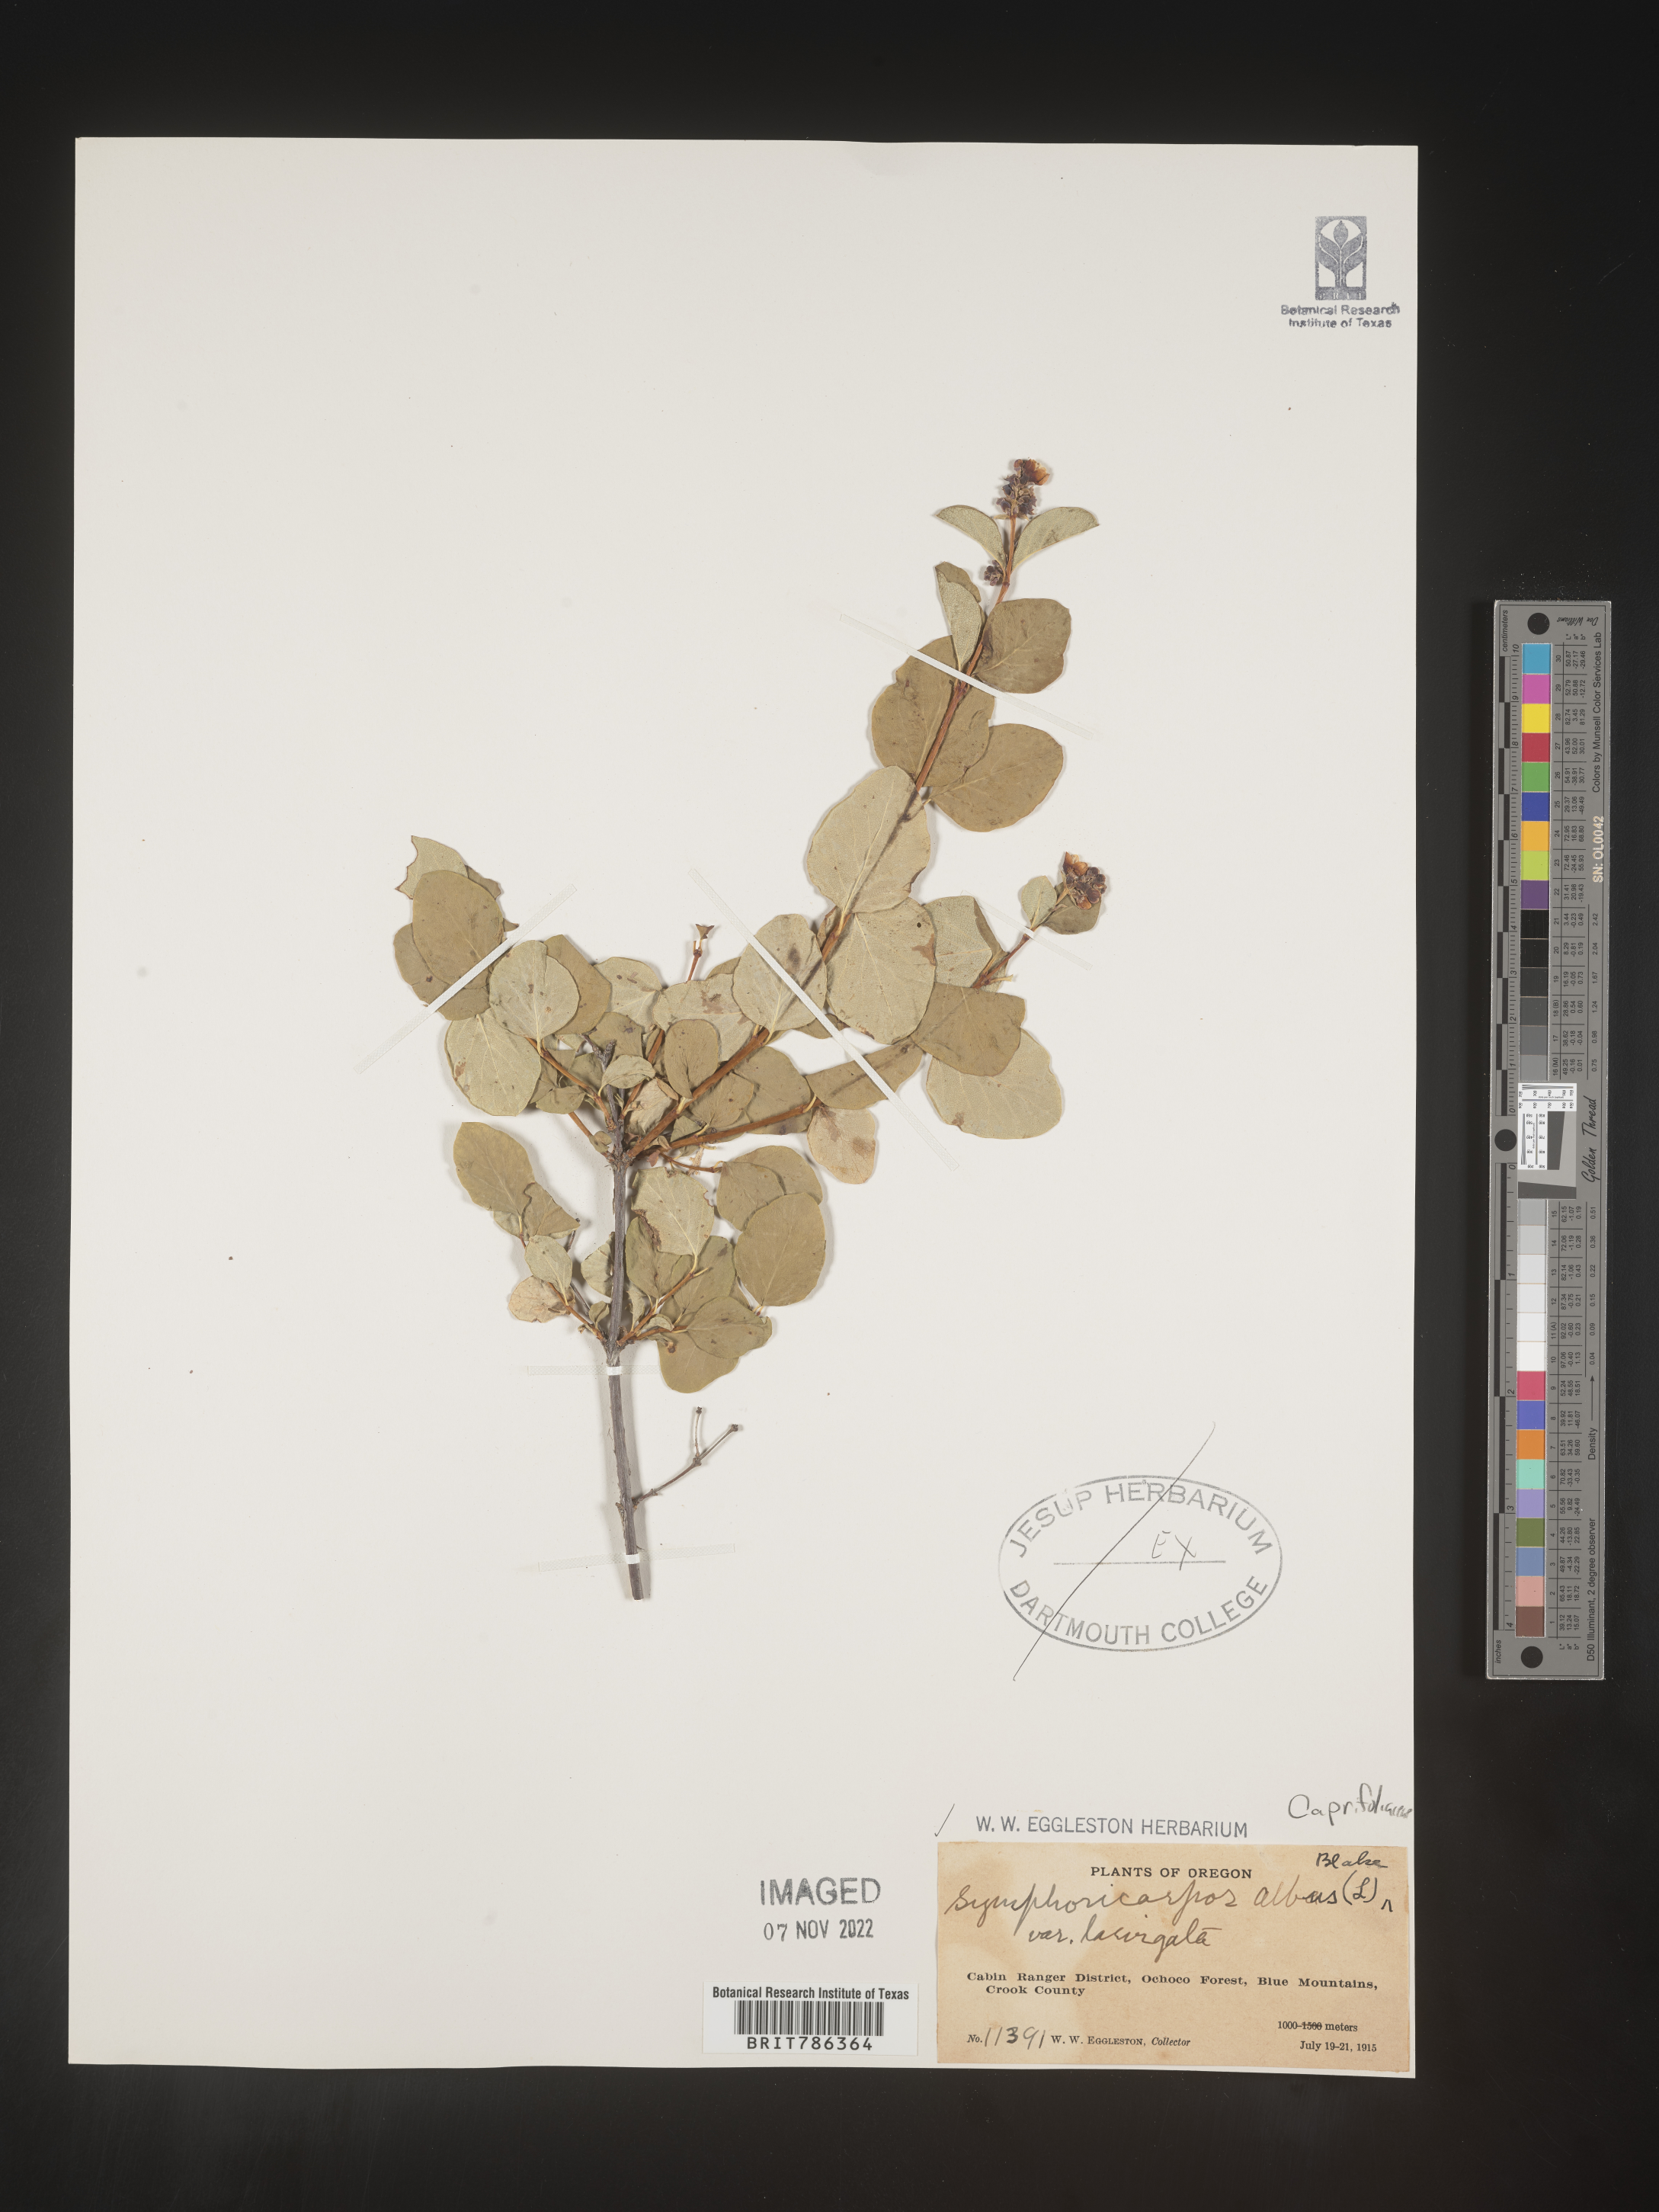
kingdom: Plantae
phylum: Tracheophyta
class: Magnoliopsida
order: Dipsacales
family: Caprifoliaceae
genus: Symphoricarpos
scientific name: Symphoricarpos albus
